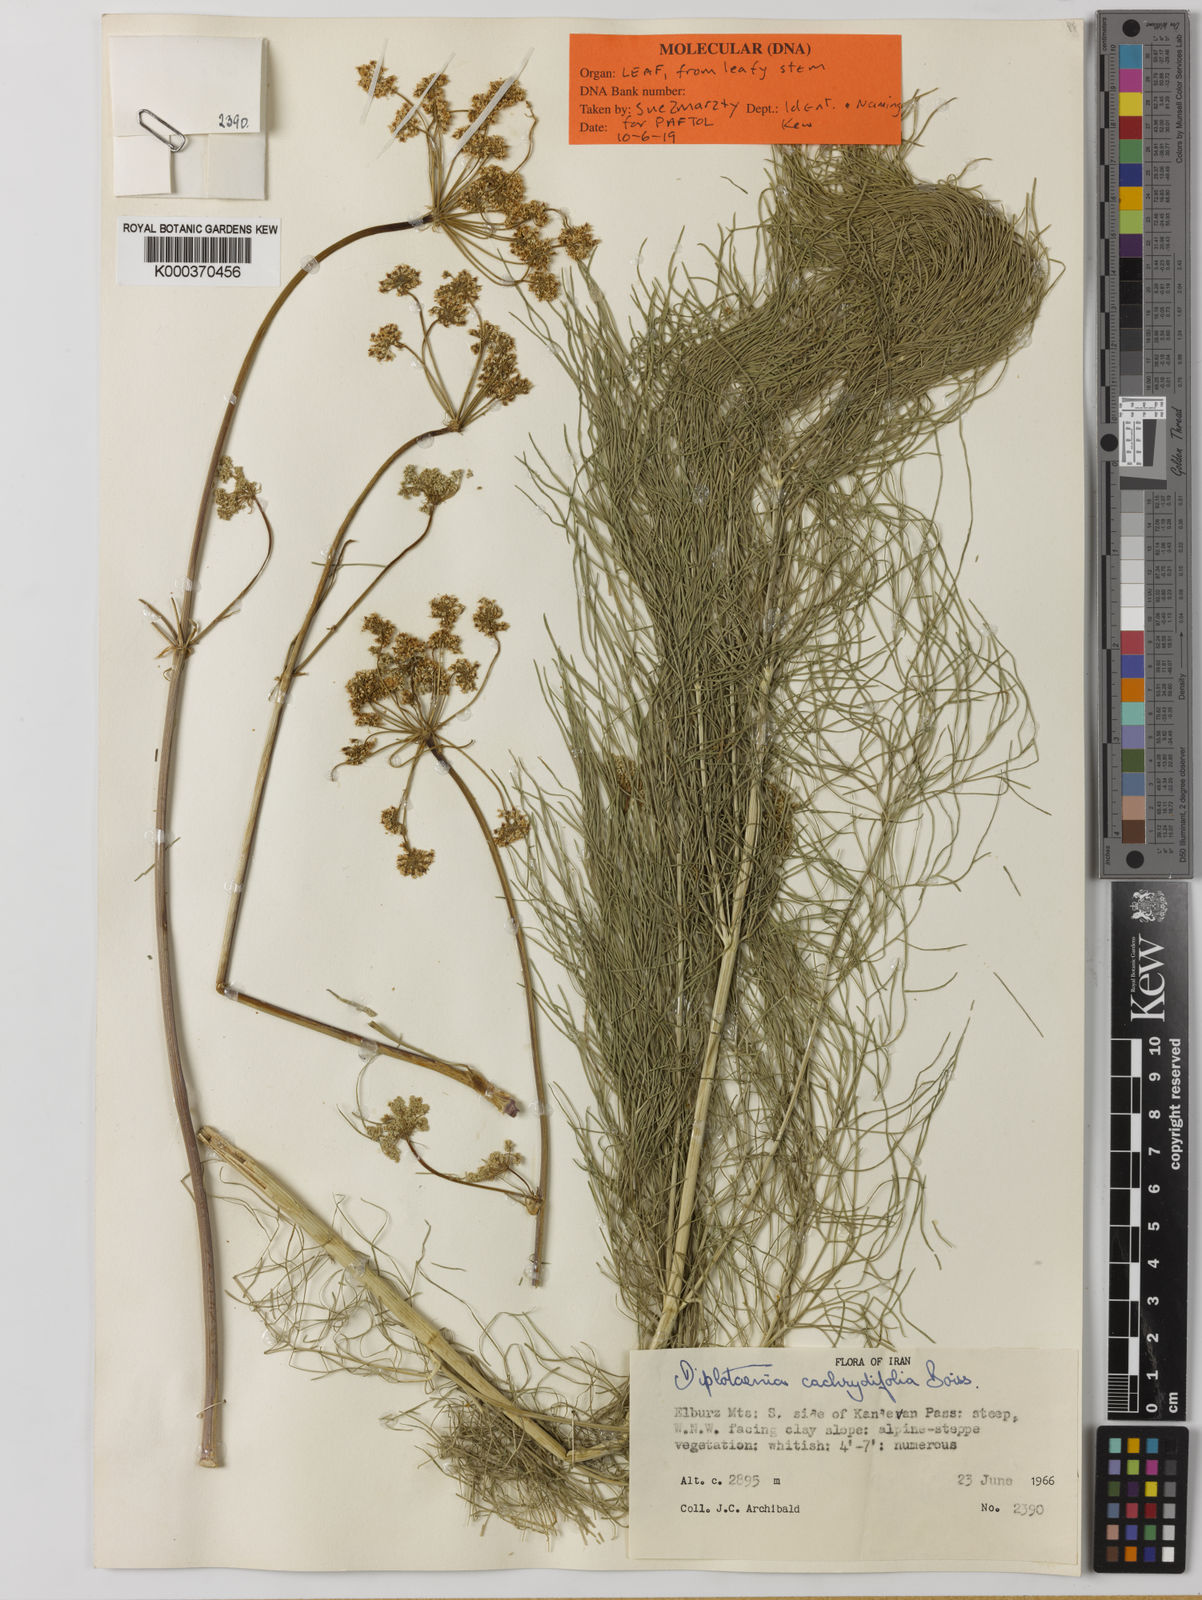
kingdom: Plantae
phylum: Tracheophyta
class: Magnoliopsida
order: Apiales
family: Apiaceae
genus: Diplotaenia
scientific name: Diplotaenia cachrydifolia
